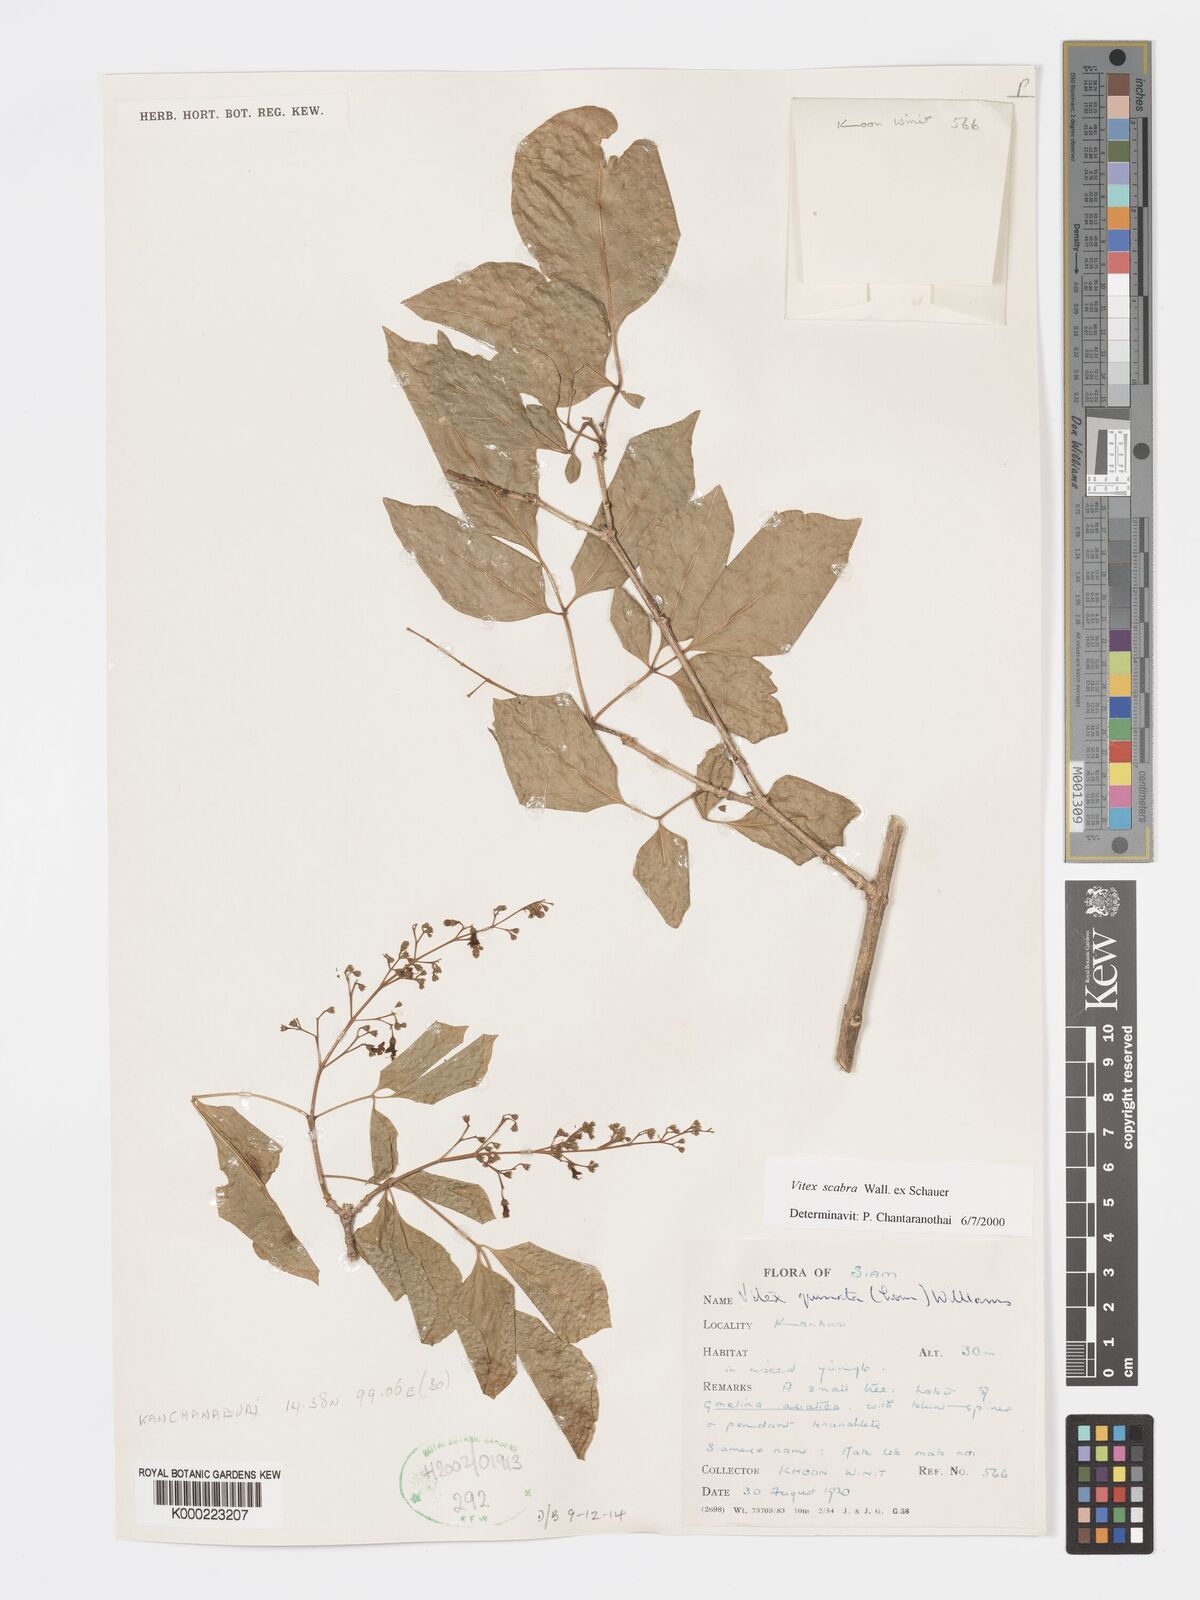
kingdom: Plantae
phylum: Tracheophyta
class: Magnoliopsida
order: Lamiales
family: Lamiaceae
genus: Vitex
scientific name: Vitex scabra
